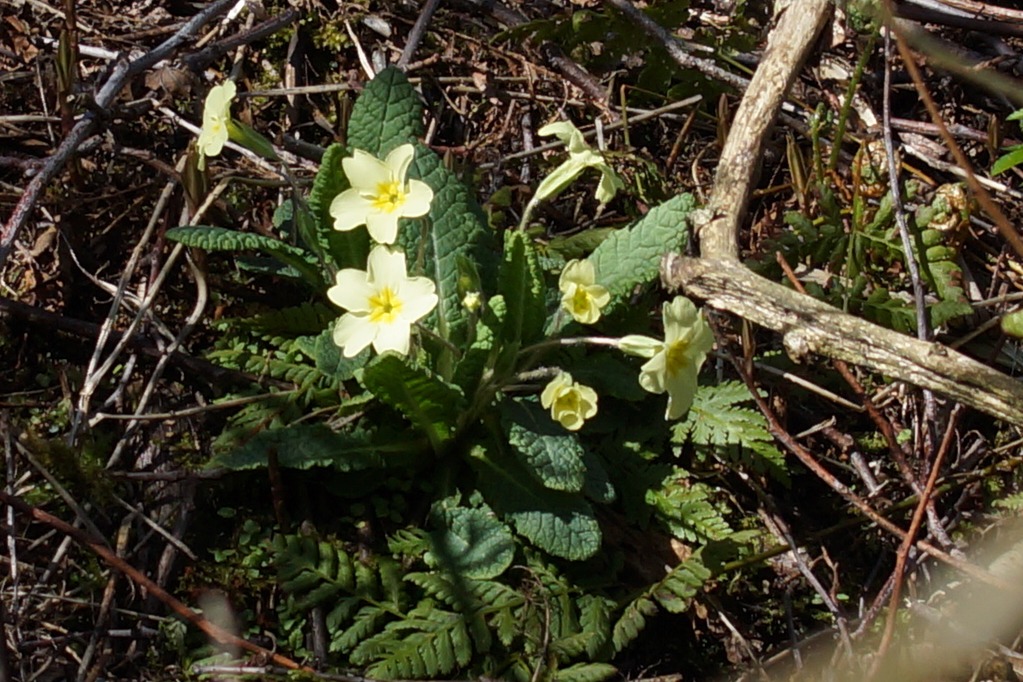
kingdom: Plantae
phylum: Tracheophyta
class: Magnoliopsida
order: Ericales
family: Primulaceae
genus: Primula
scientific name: Primula vulgaris
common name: Storblomstret kodriver
